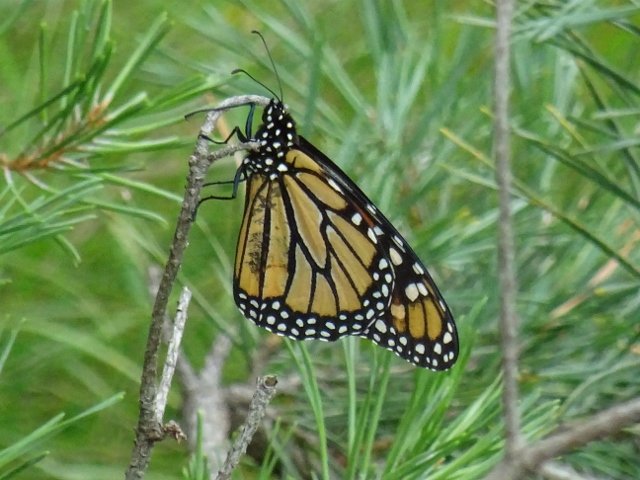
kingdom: Animalia
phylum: Arthropoda
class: Insecta
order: Lepidoptera
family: Nymphalidae
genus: Danaus
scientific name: Danaus plexippus
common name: Monarch
